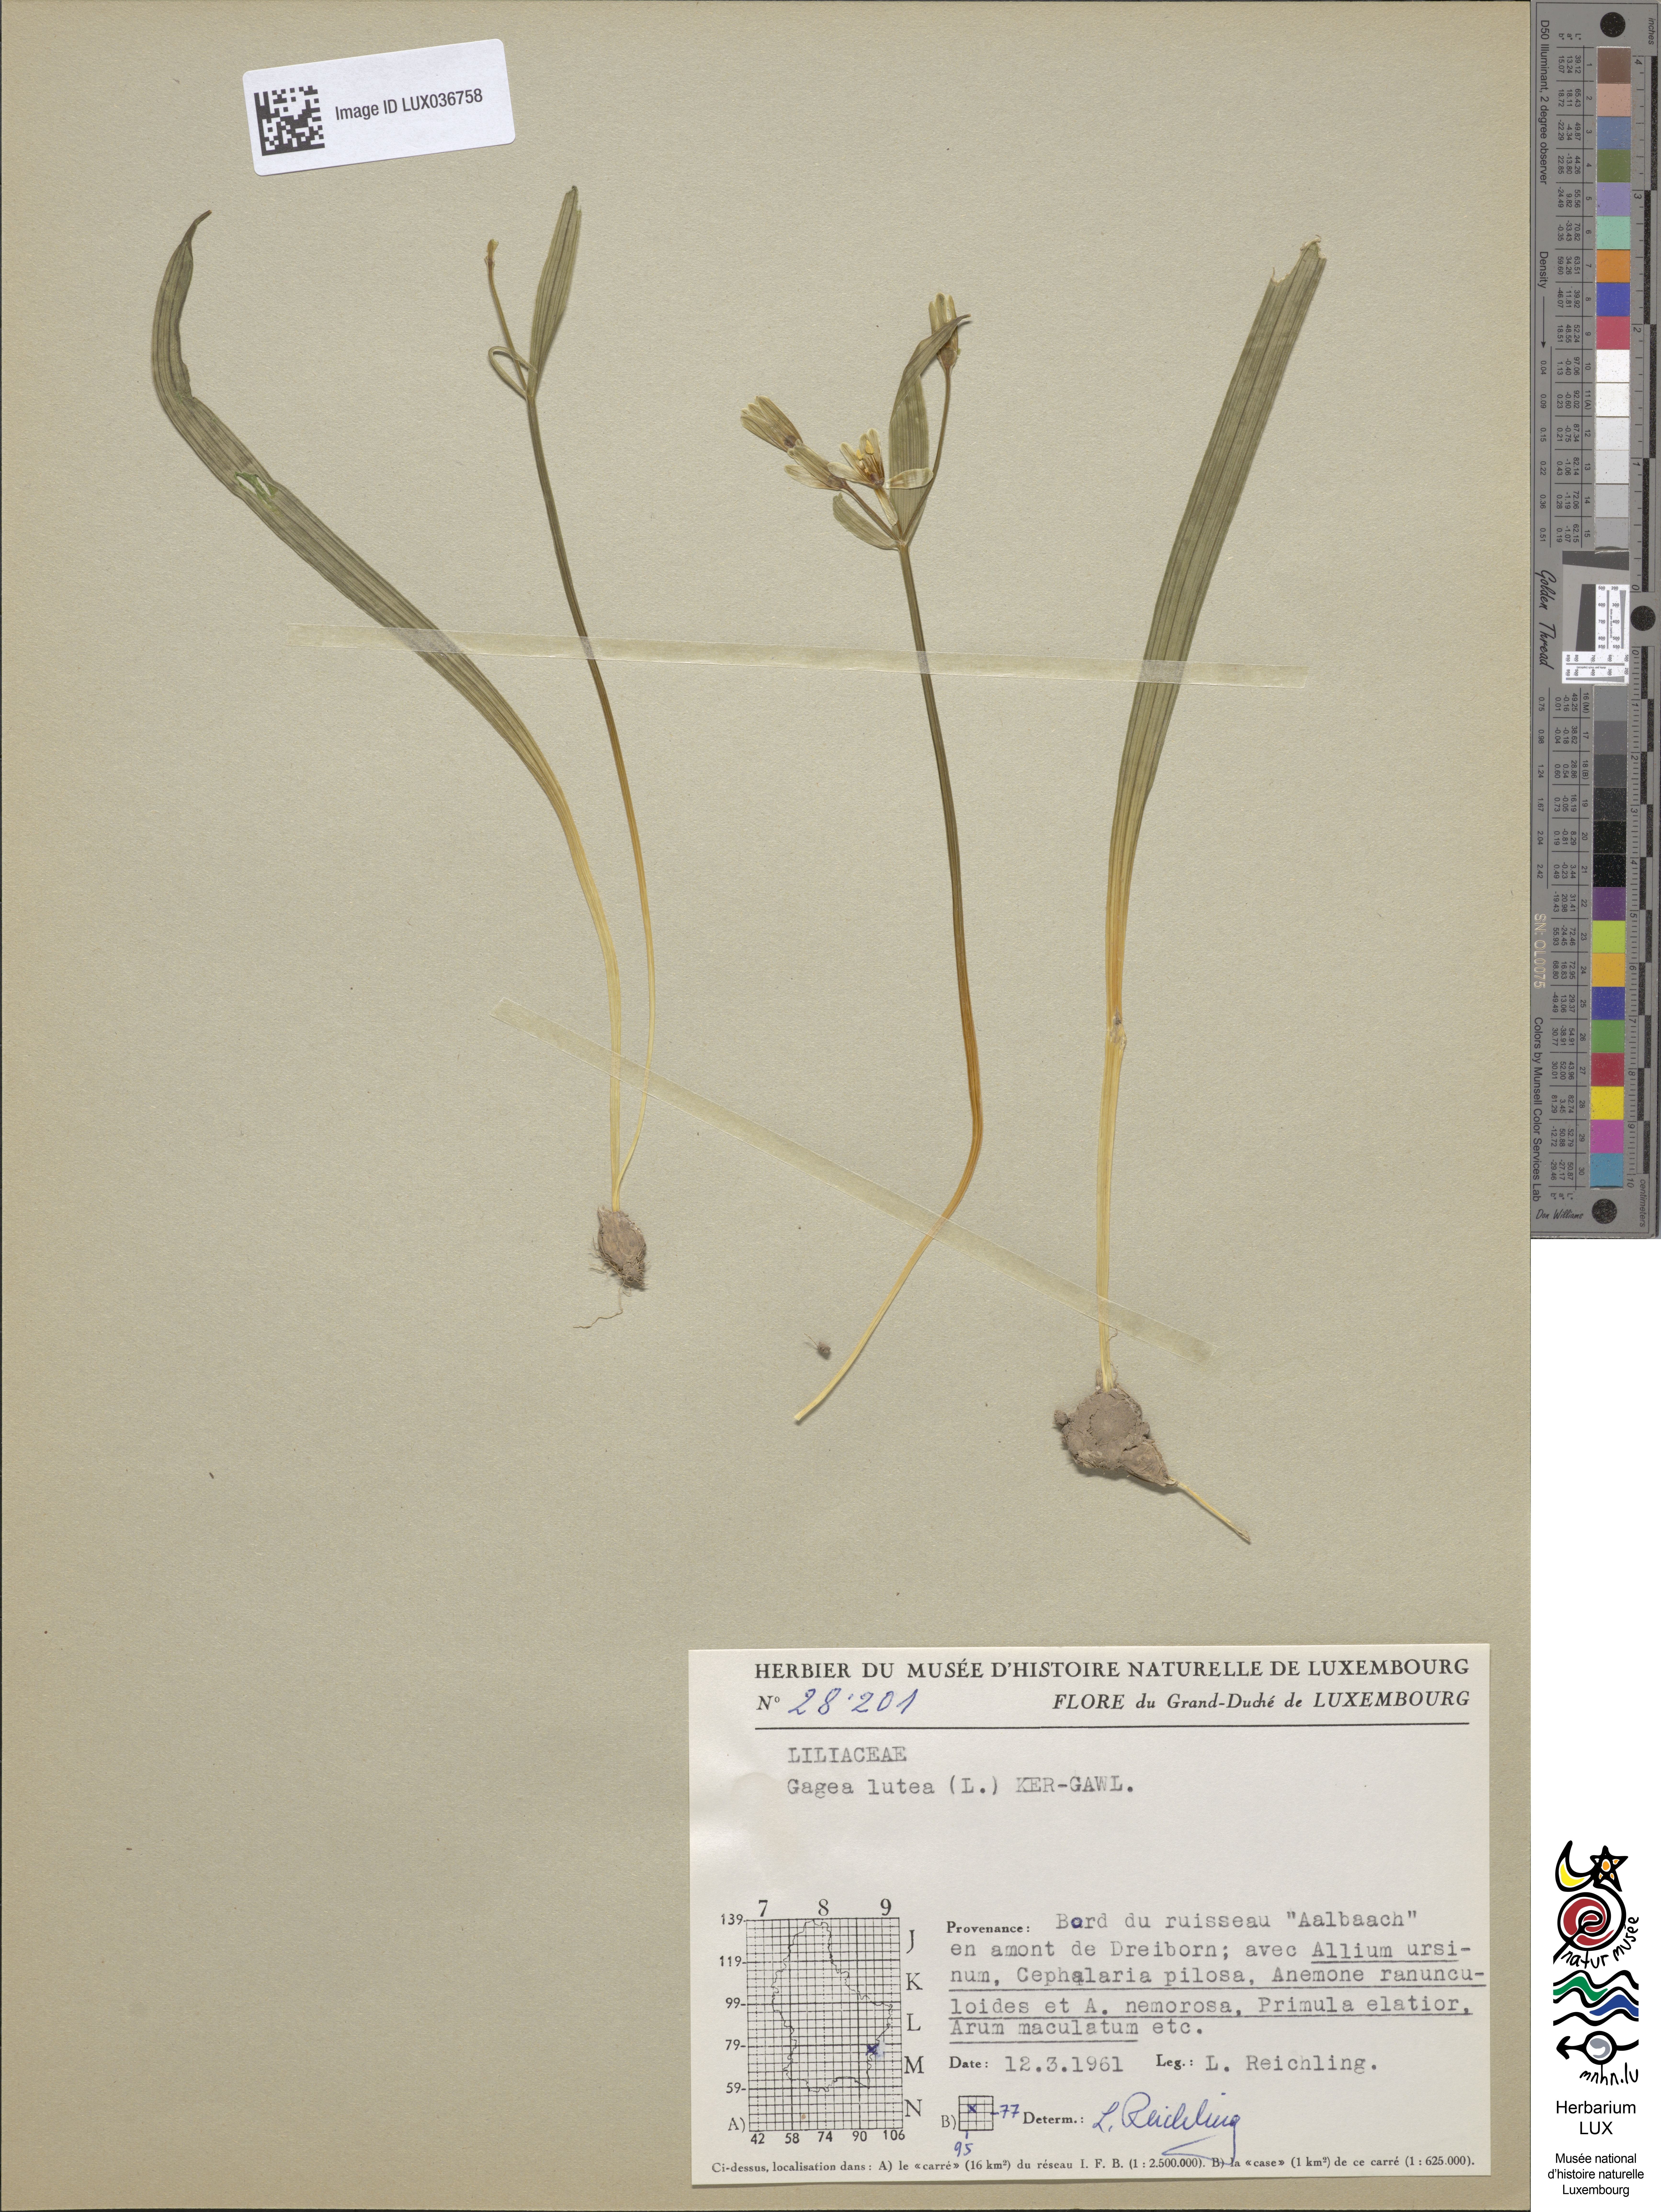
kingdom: Plantae
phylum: Tracheophyta
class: Liliopsida
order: Liliales
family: Liliaceae
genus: Gagea
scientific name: Gagea lutea
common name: Yellow star-of-bethlehem
